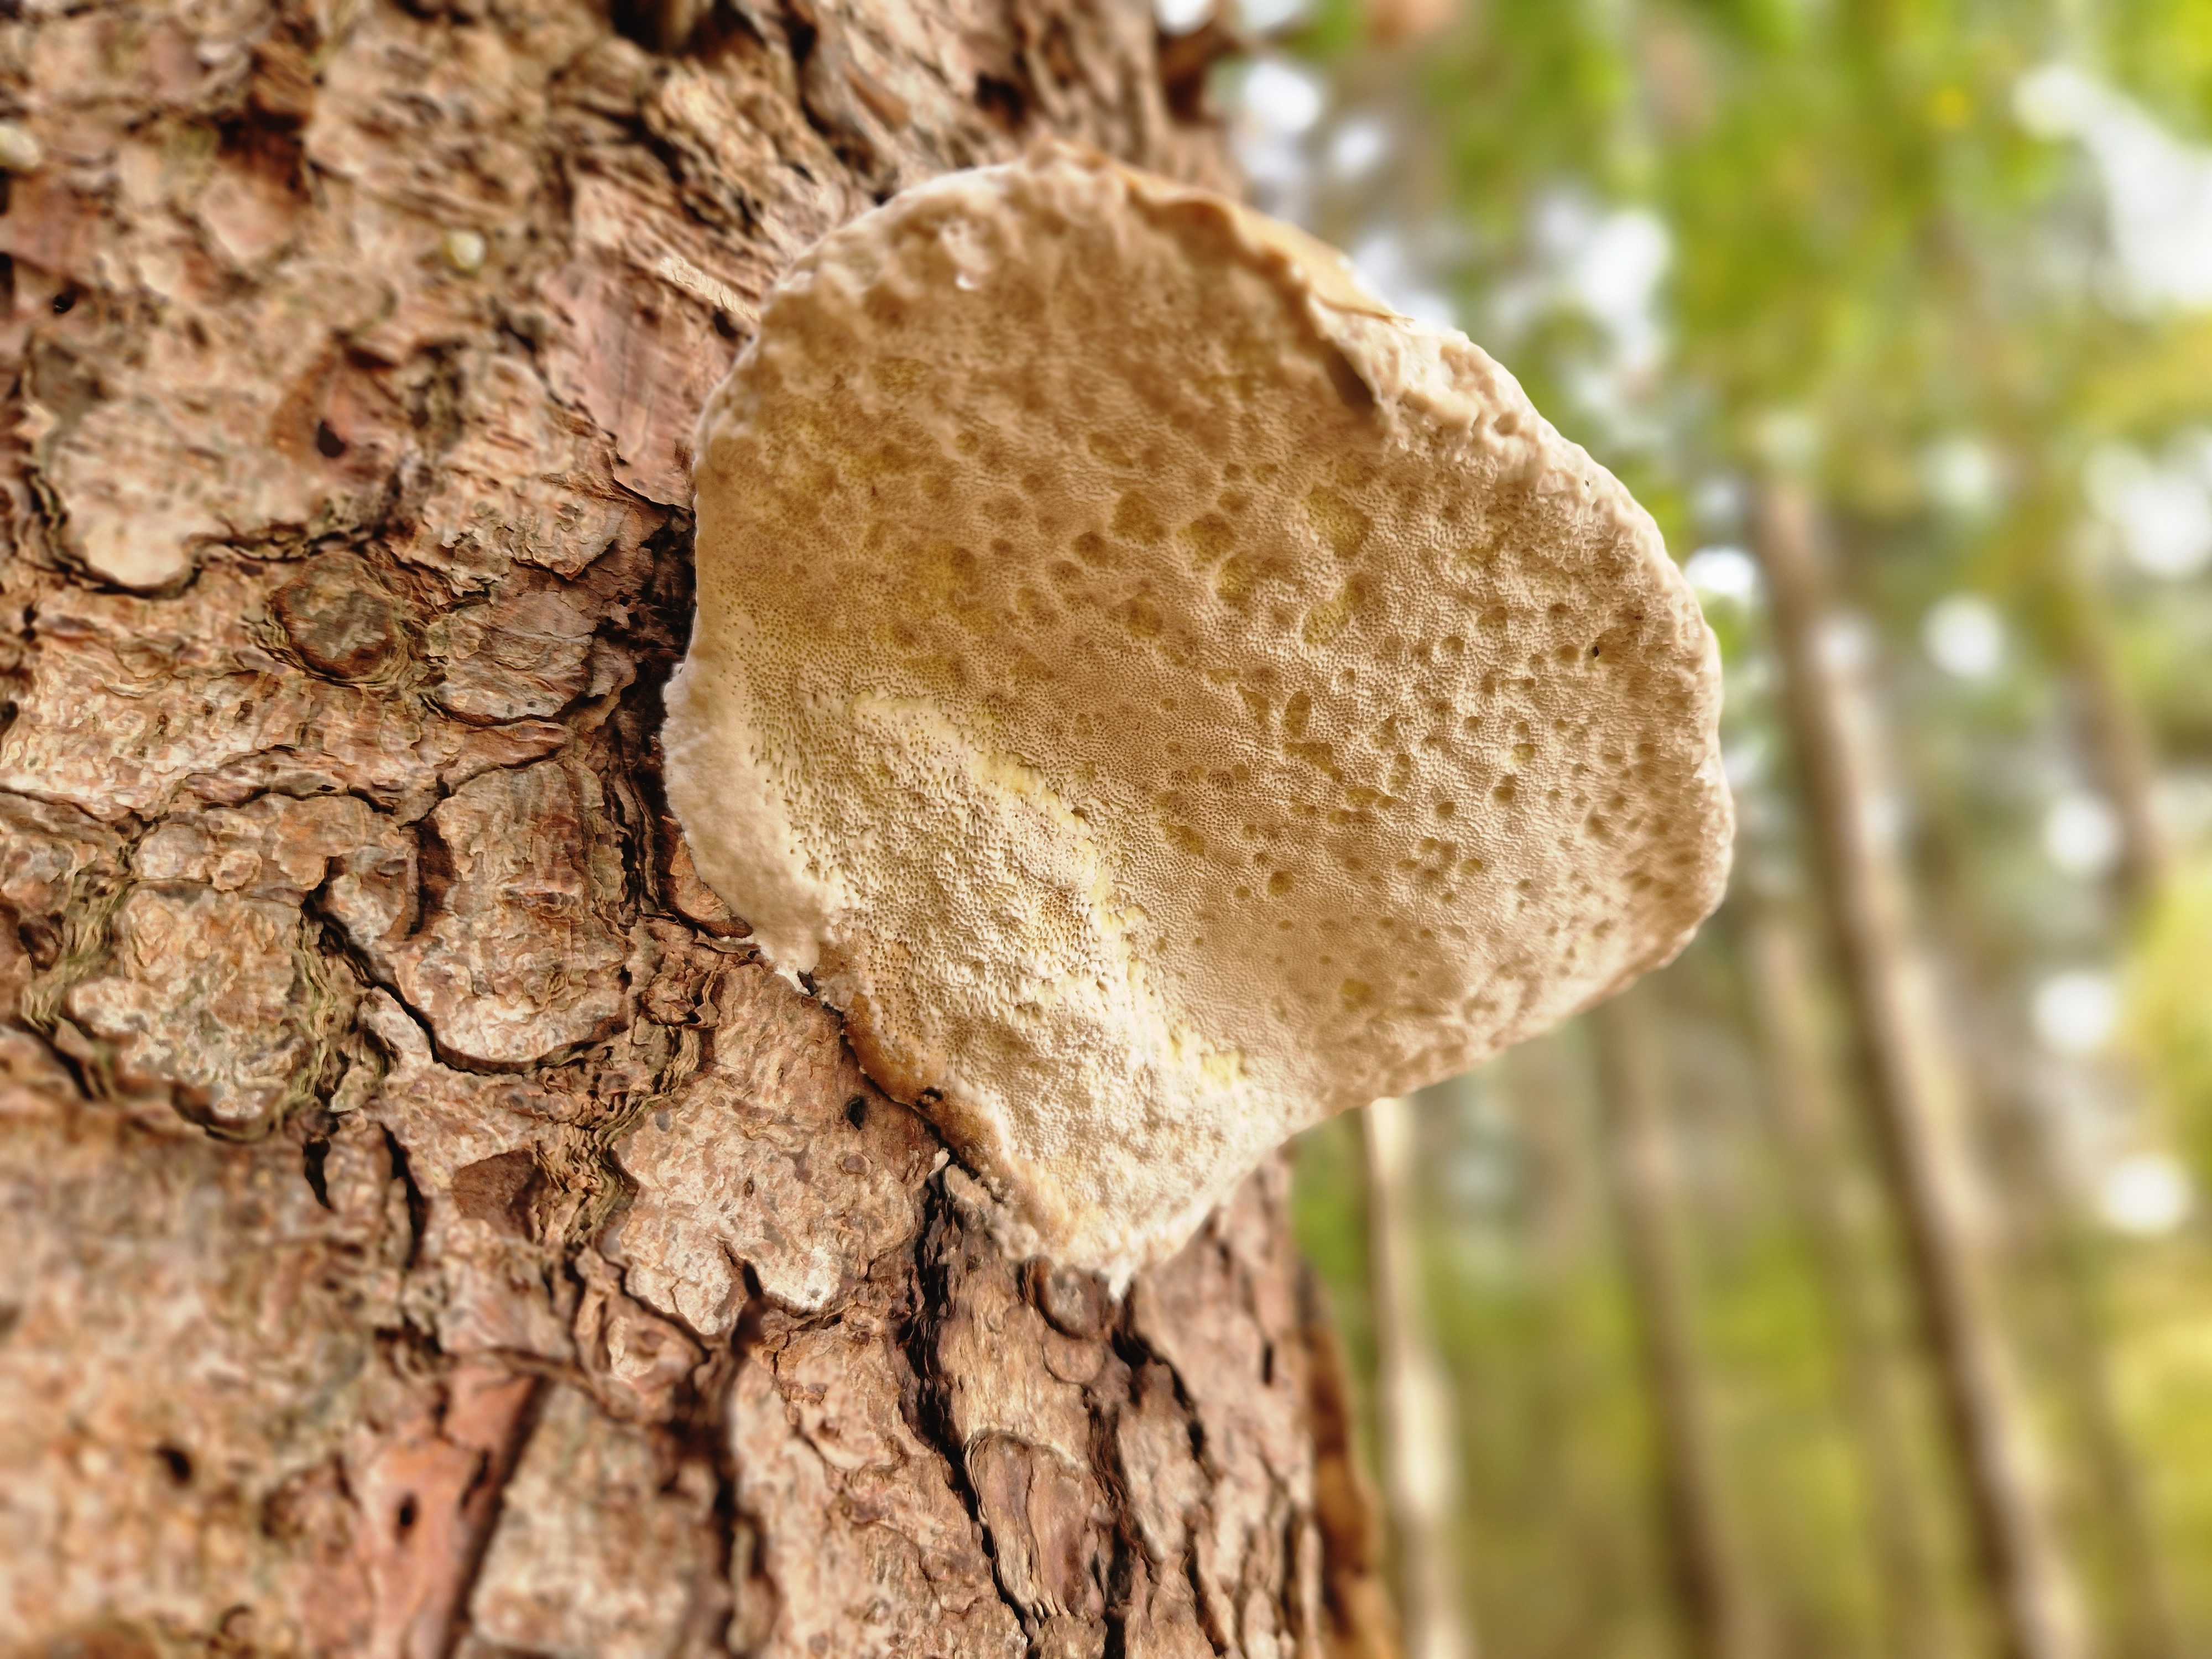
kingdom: Fungi
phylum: Basidiomycota
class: Agaricomycetes
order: Polyporales
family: Fomitopsidaceae
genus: Fomitopsis
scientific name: Fomitopsis pinicola
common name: randbæltet hovporesvamp
